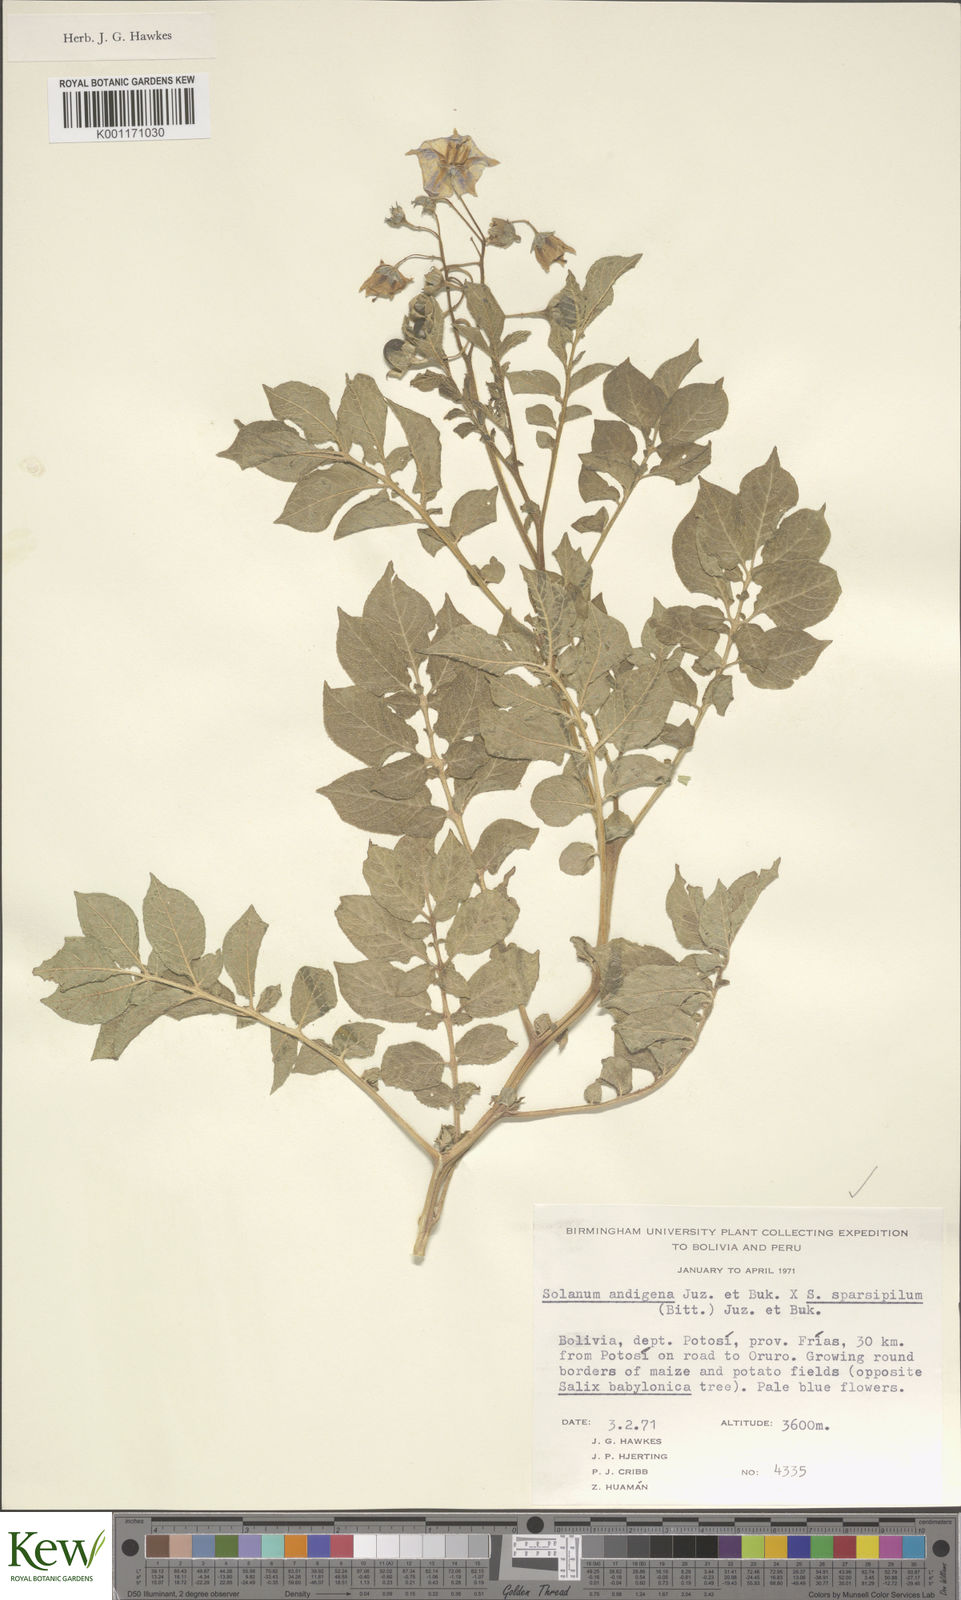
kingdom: Plantae
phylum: Tracheophyta
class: Magnoliopsida
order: Solanales
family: Solanaceae
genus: Solanum
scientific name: Solanum
